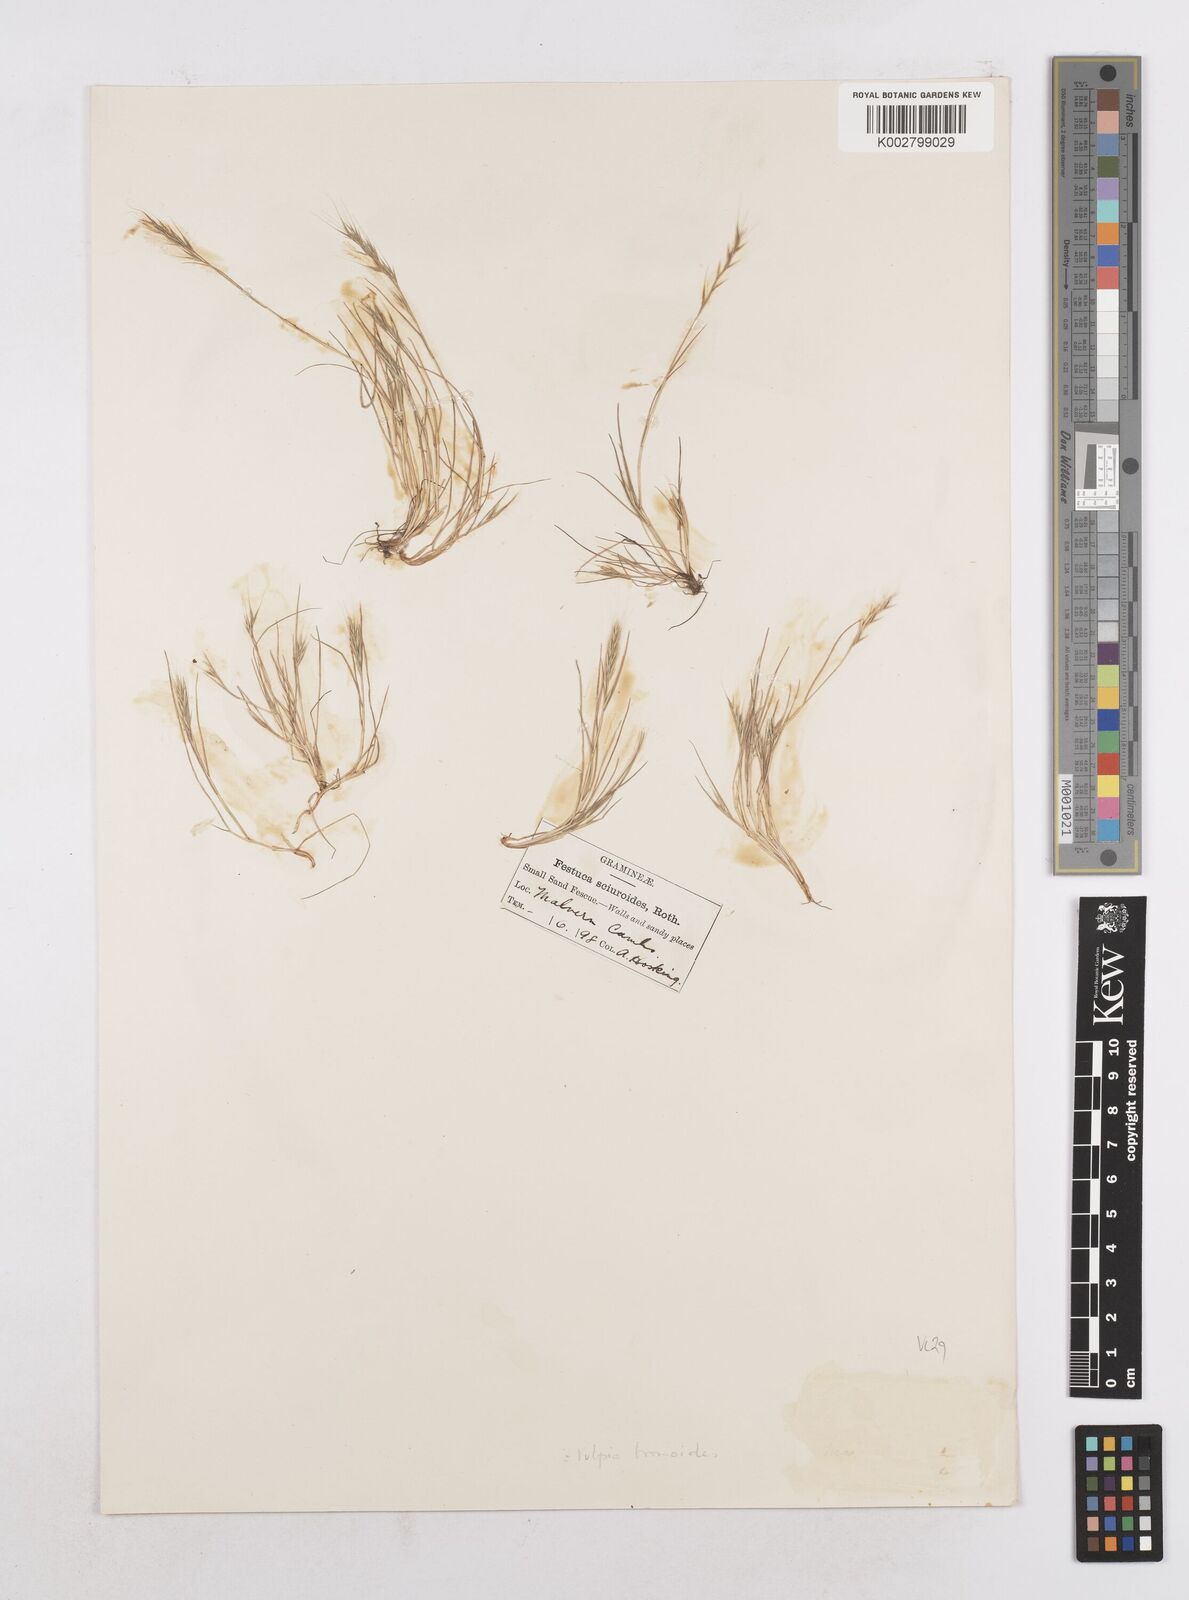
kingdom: Plantae
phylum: Tracheophyta
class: Liliopsida
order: Poales
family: Poaceae
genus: Festuca
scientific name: Festuca bromoides
